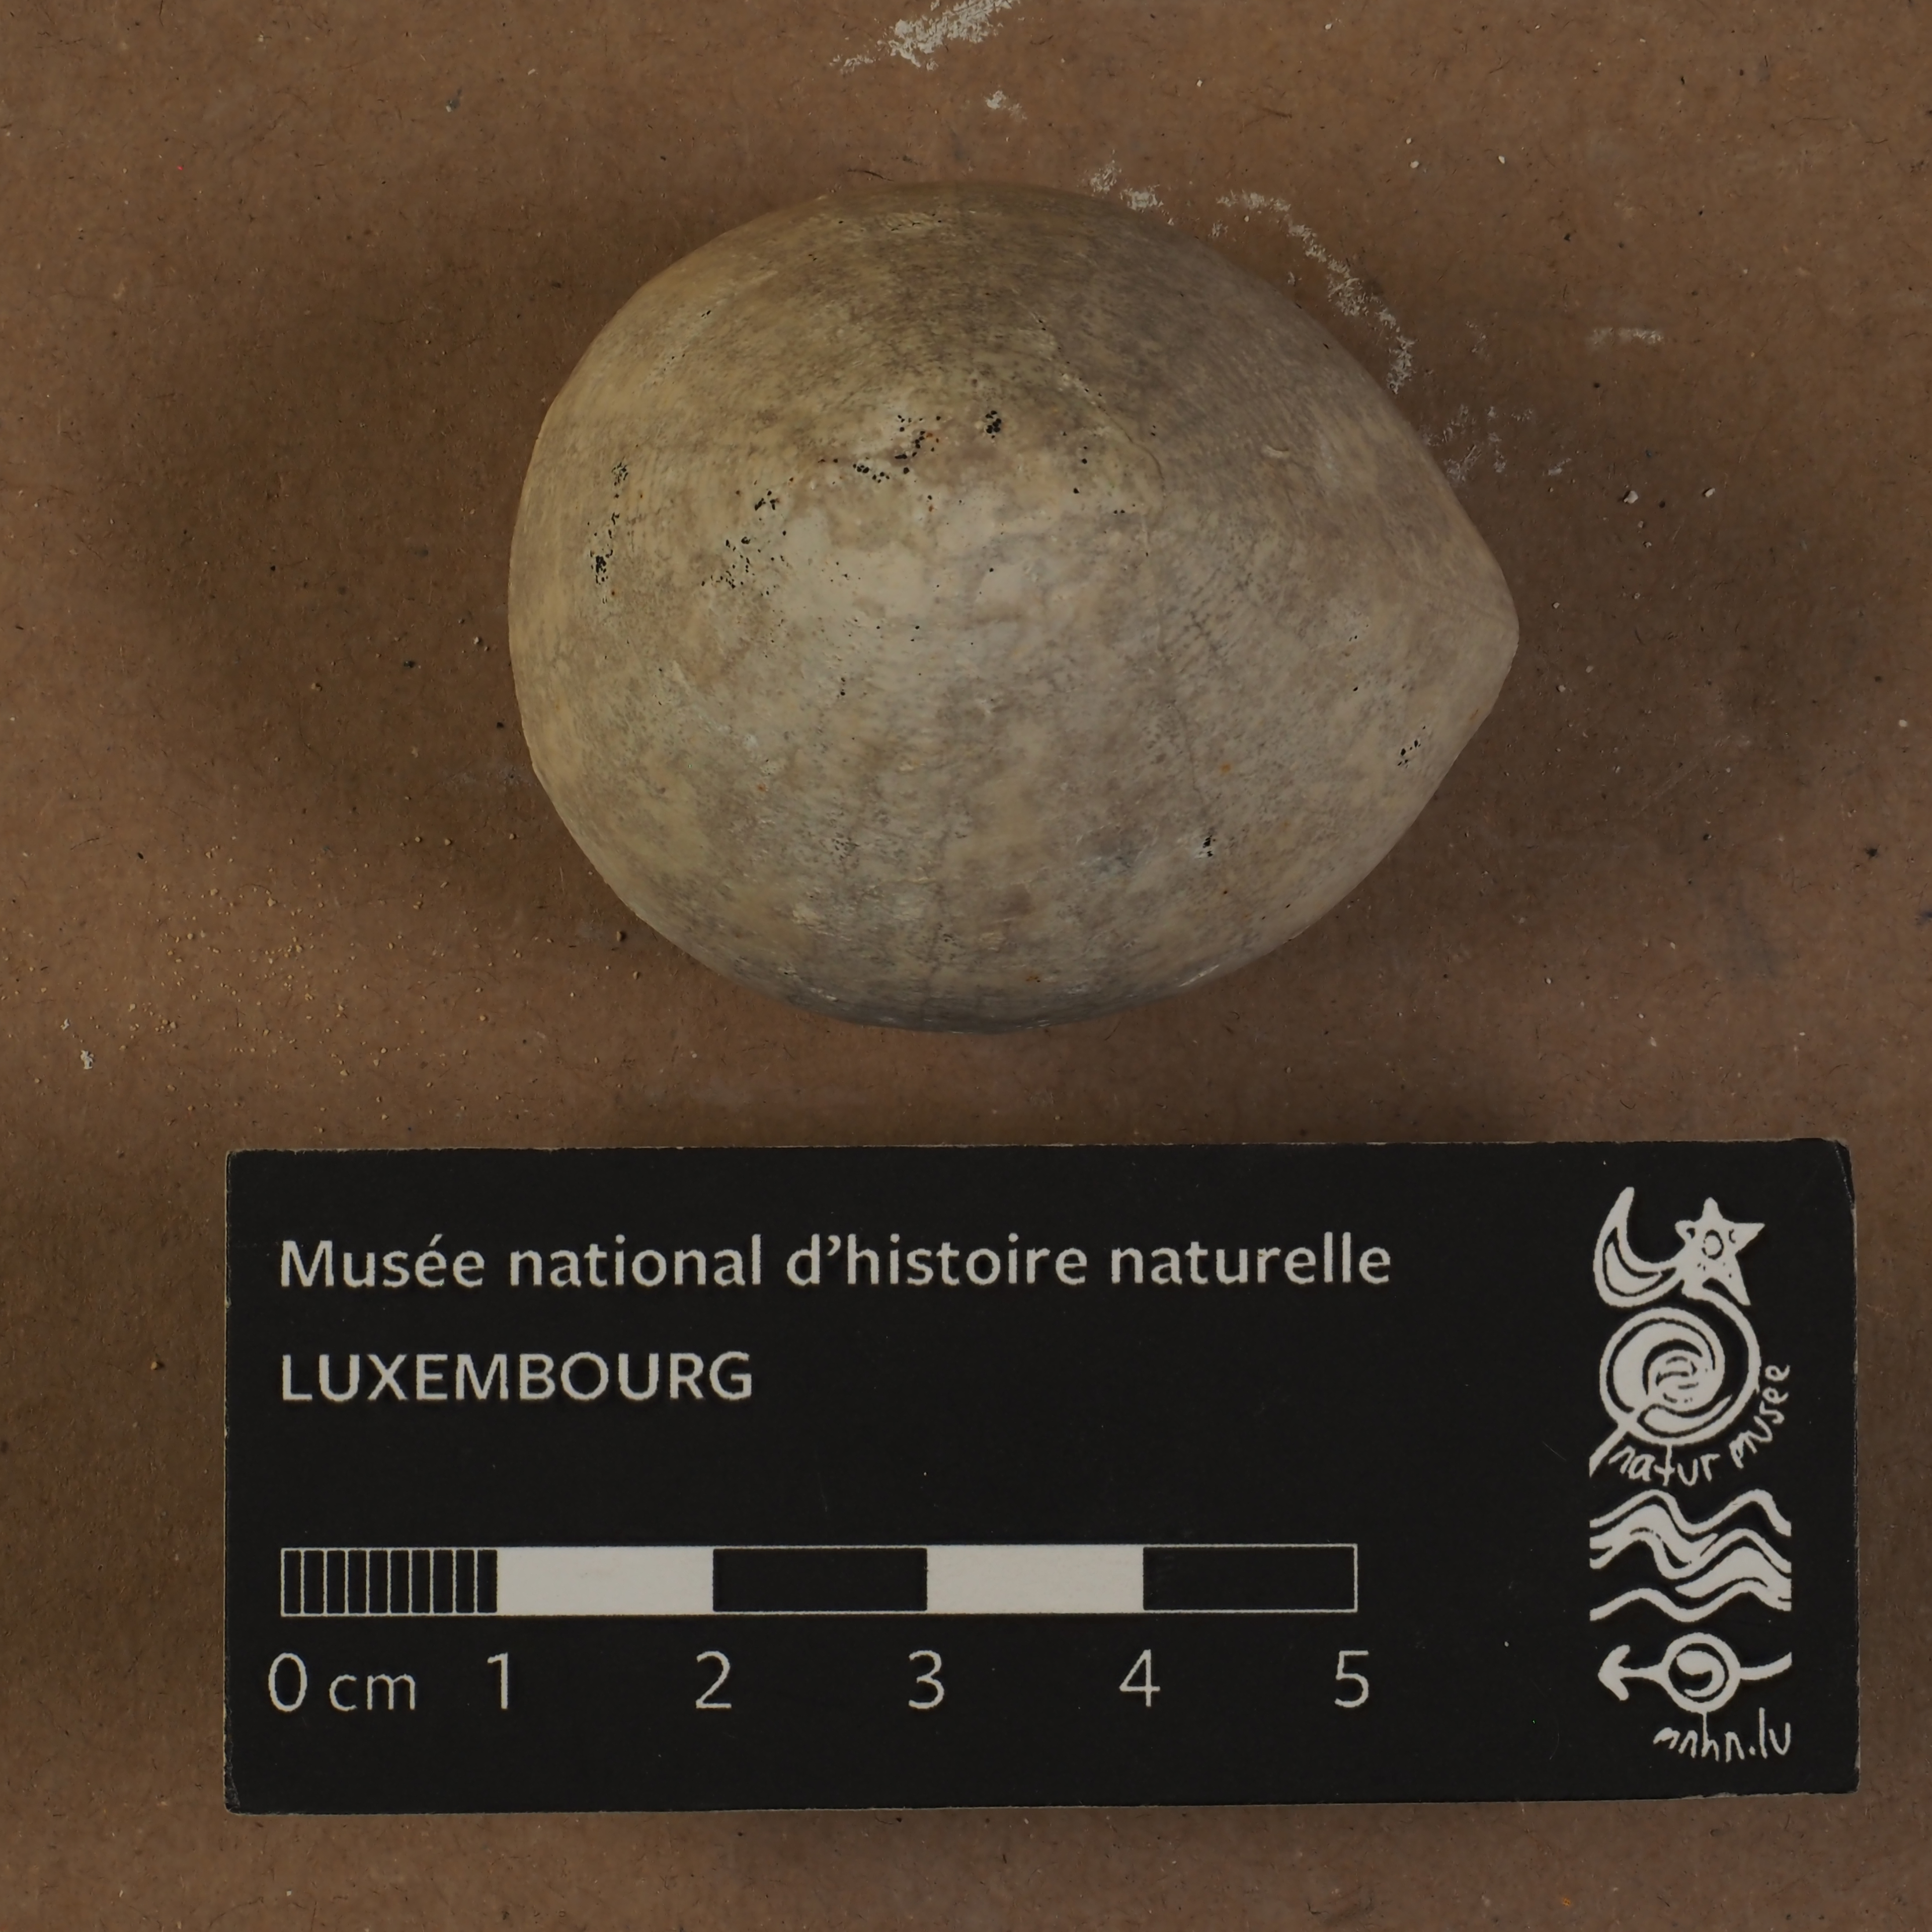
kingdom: Animalia
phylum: Echinodermata
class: Echinoidea
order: Holasteroida
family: Echinocorythidae
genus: Echinocorys
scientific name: Echinocorys
